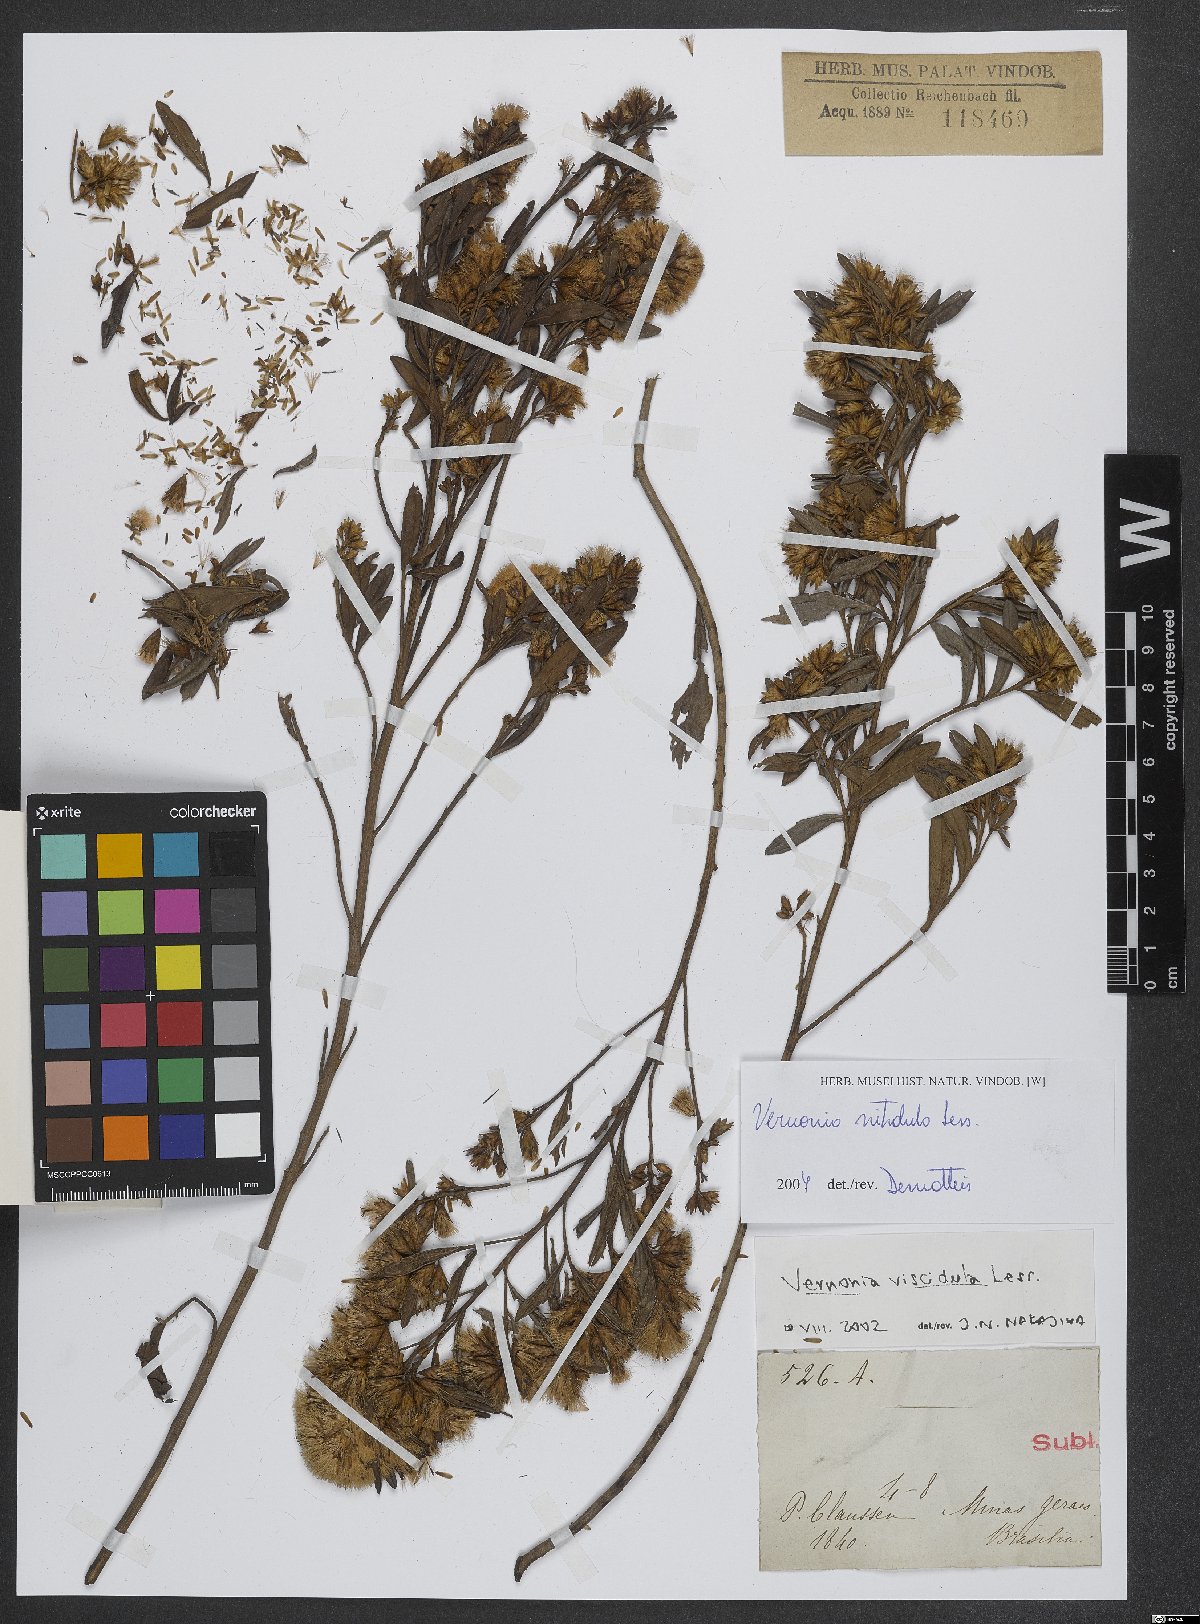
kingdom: Plantae
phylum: Tracheophyta
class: Magnoliopsida
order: Asterales
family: Asteraceae
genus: Vernonanthura
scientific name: Vernonanthura montevidensis
